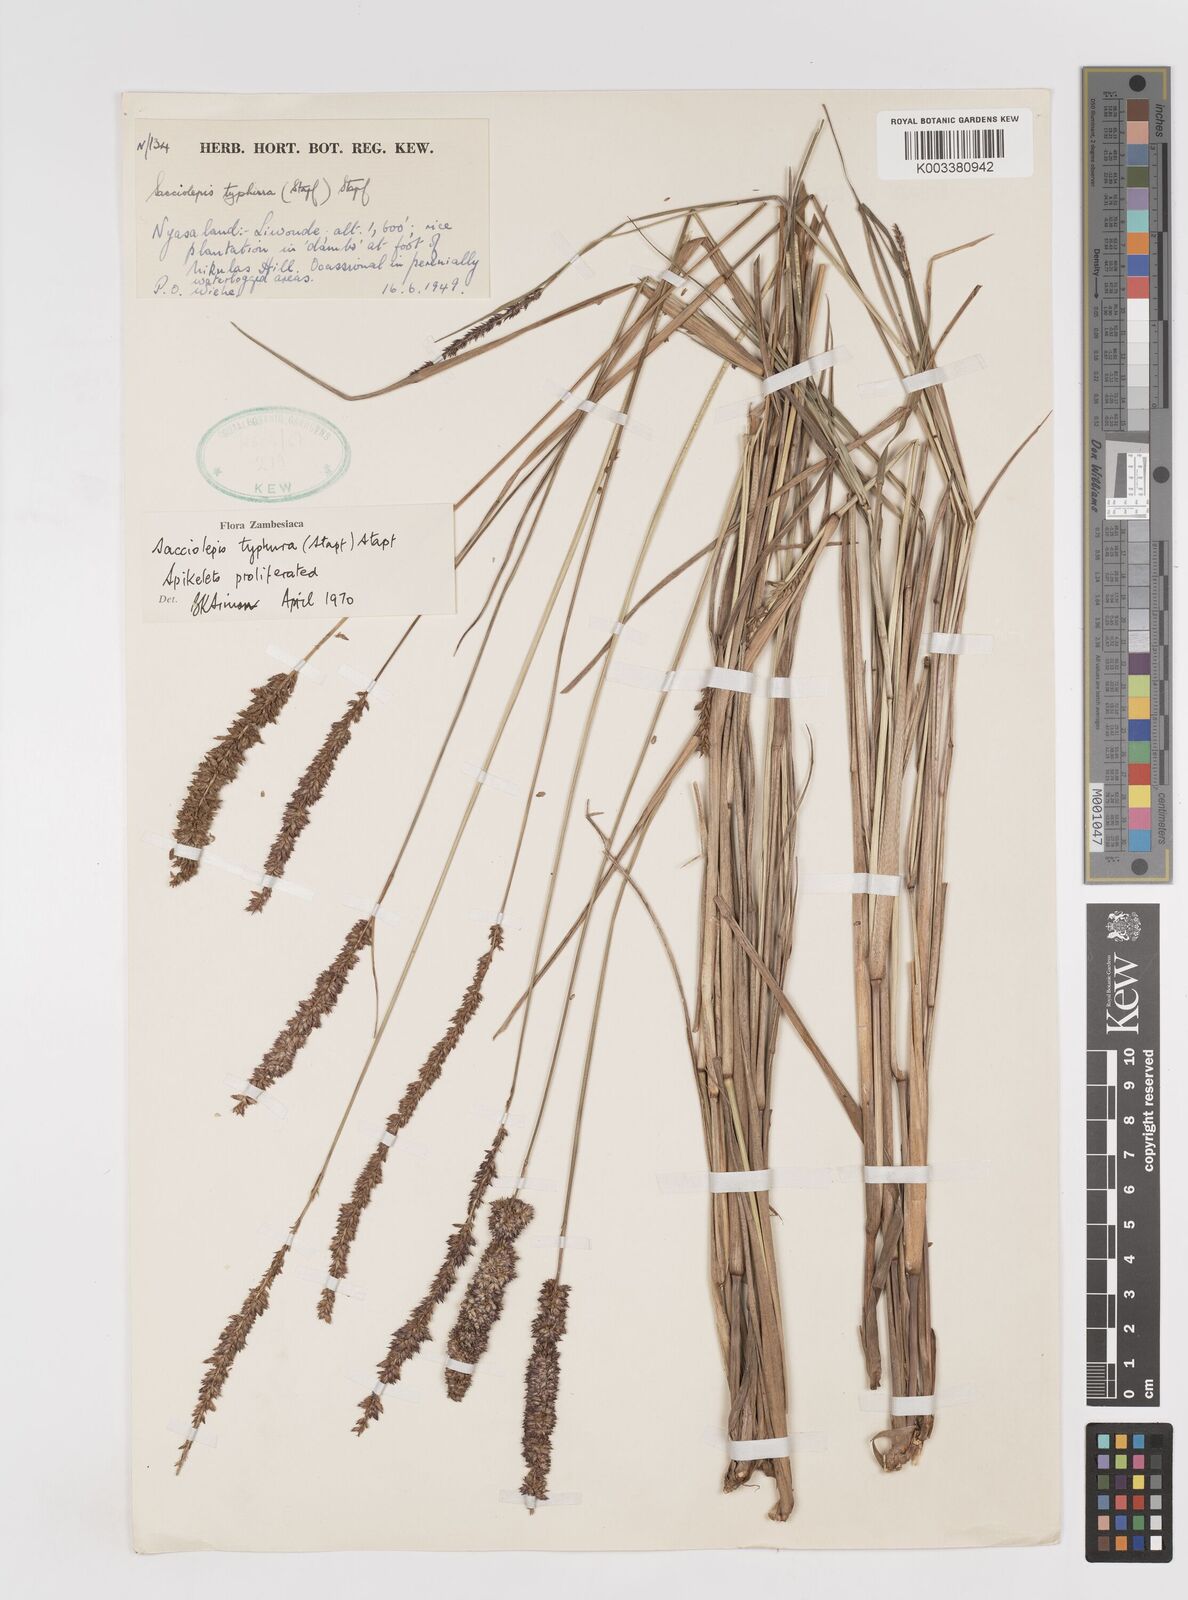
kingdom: Plantae
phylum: Tracheophyta
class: Liliopsida
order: Poales
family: Poaceae
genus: Sacciolepis
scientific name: Sacciolepis typhura
